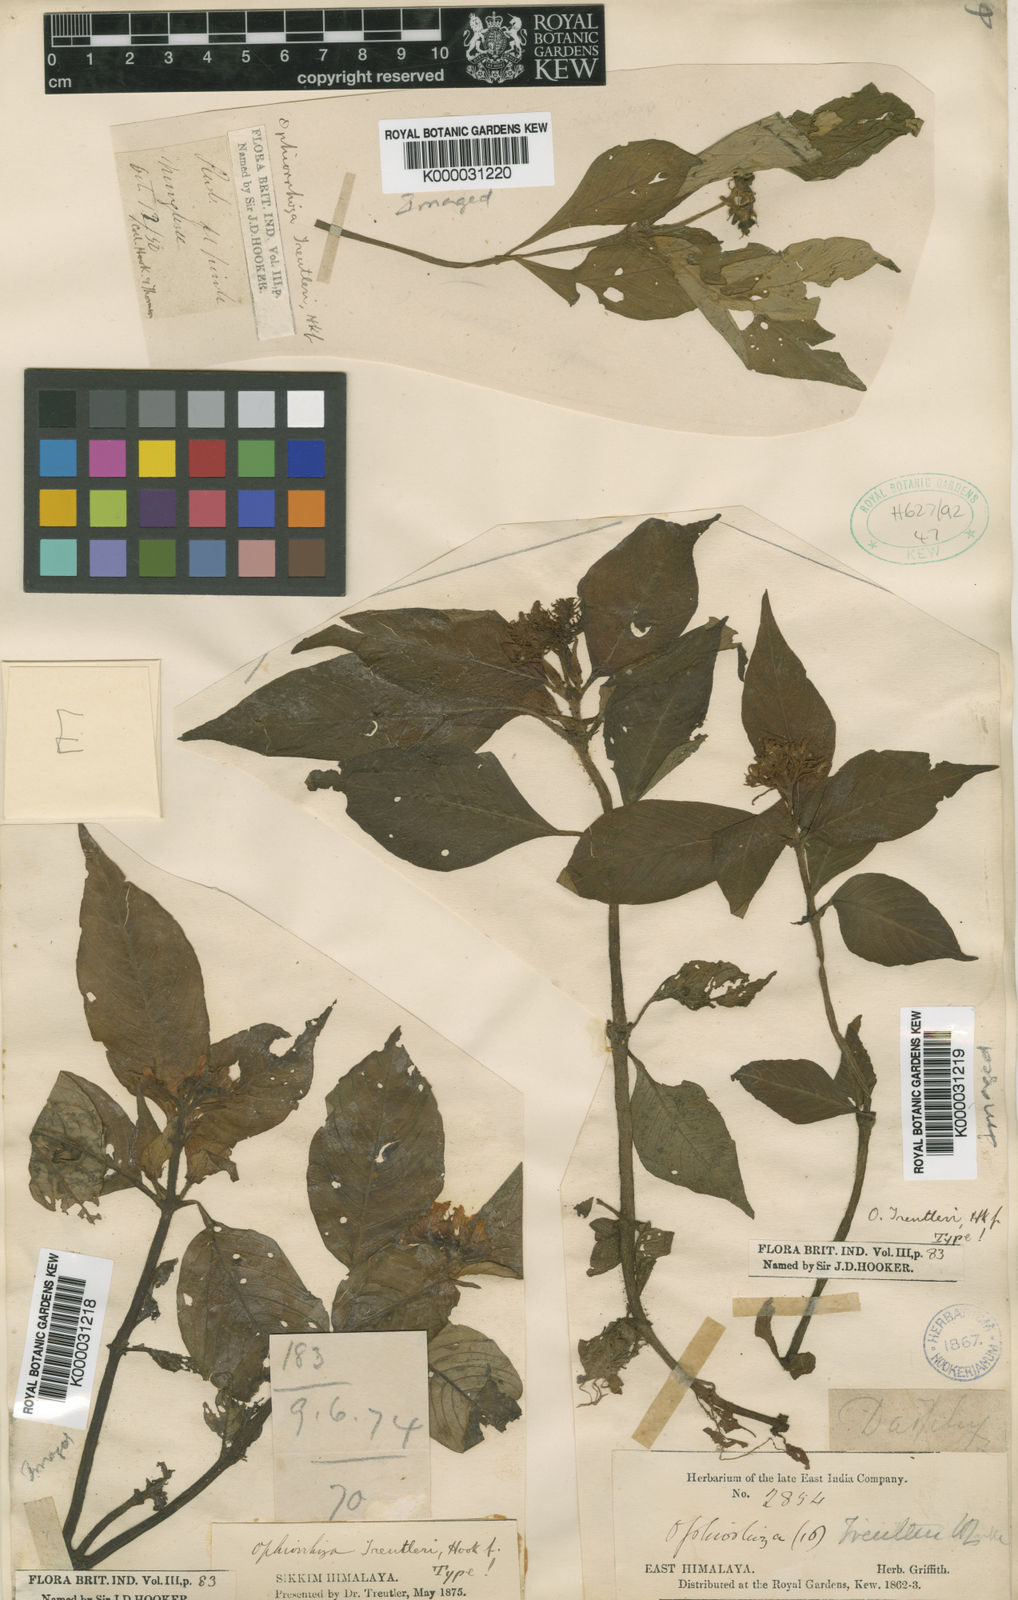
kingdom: Plantae
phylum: Tracheophyta
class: Magnoliopsida
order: Gentianales
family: Rubiaceae
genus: Ophiorrhiza
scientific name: Ophiorrhiza treutleri
